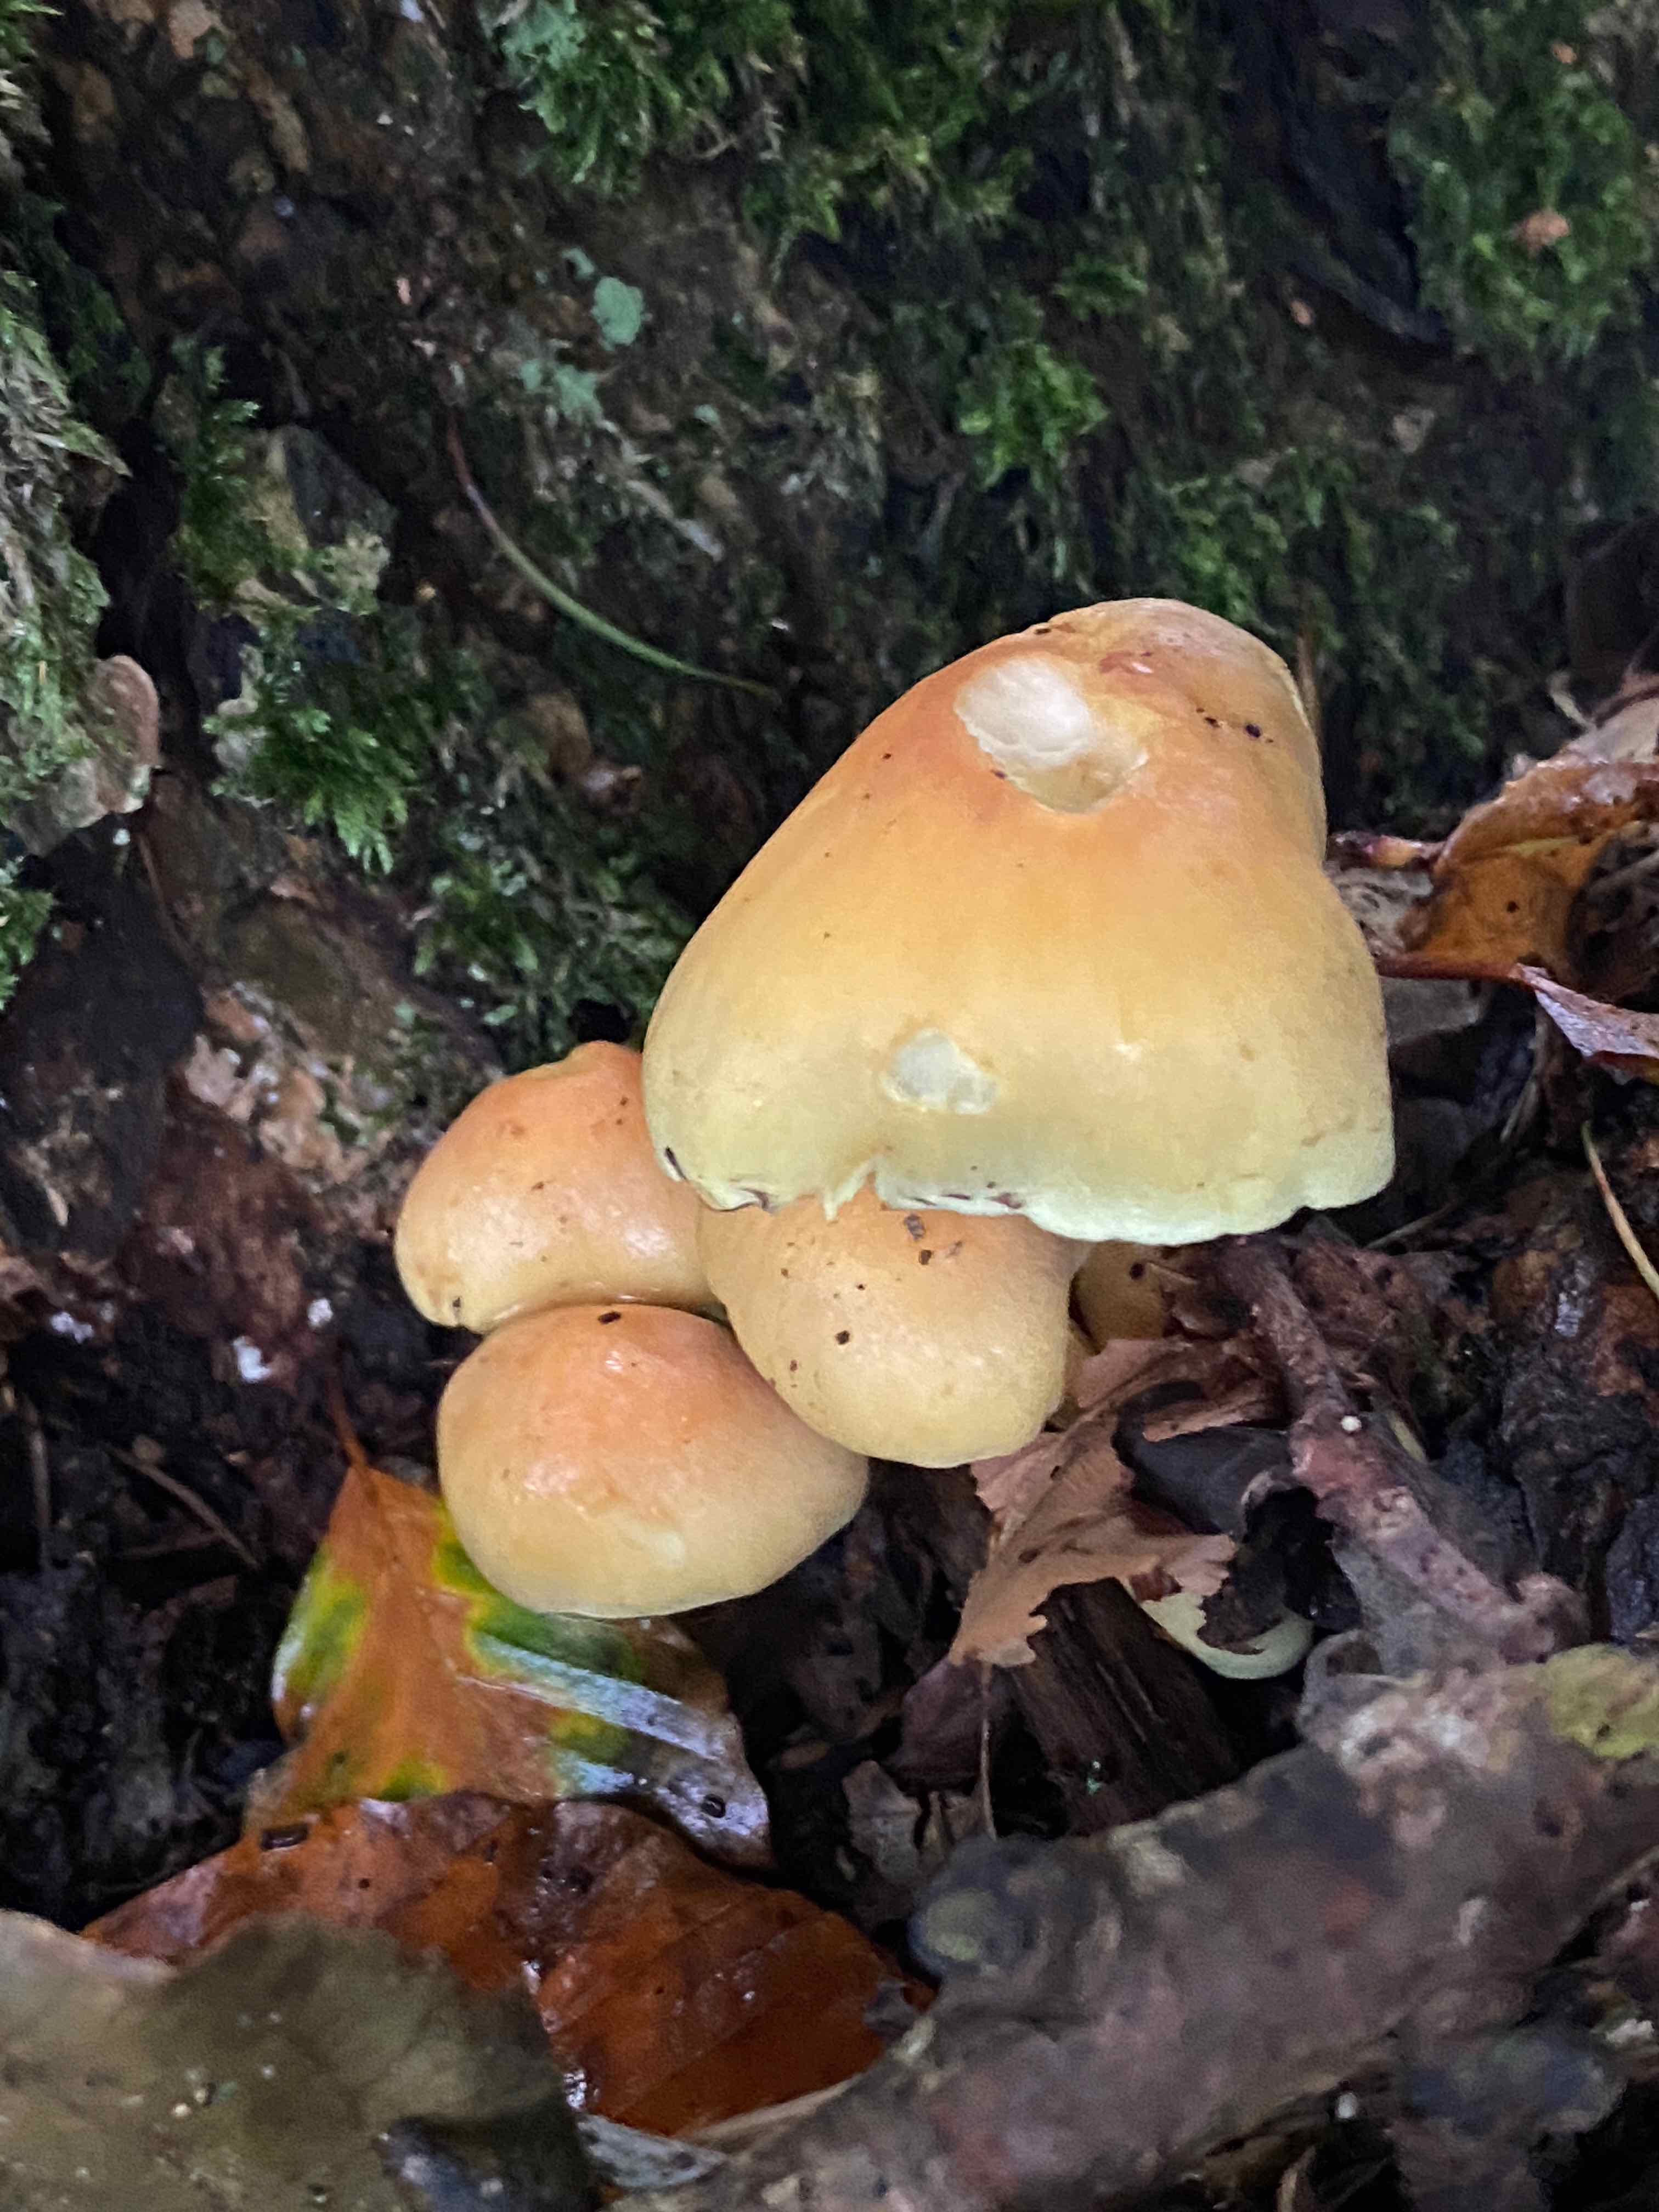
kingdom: Fungi
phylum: Basidiomycota
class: Agaricomycetes
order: Agaricales
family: Strophariaceae
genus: Hypholoma
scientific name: Hypholoma fasciculare
